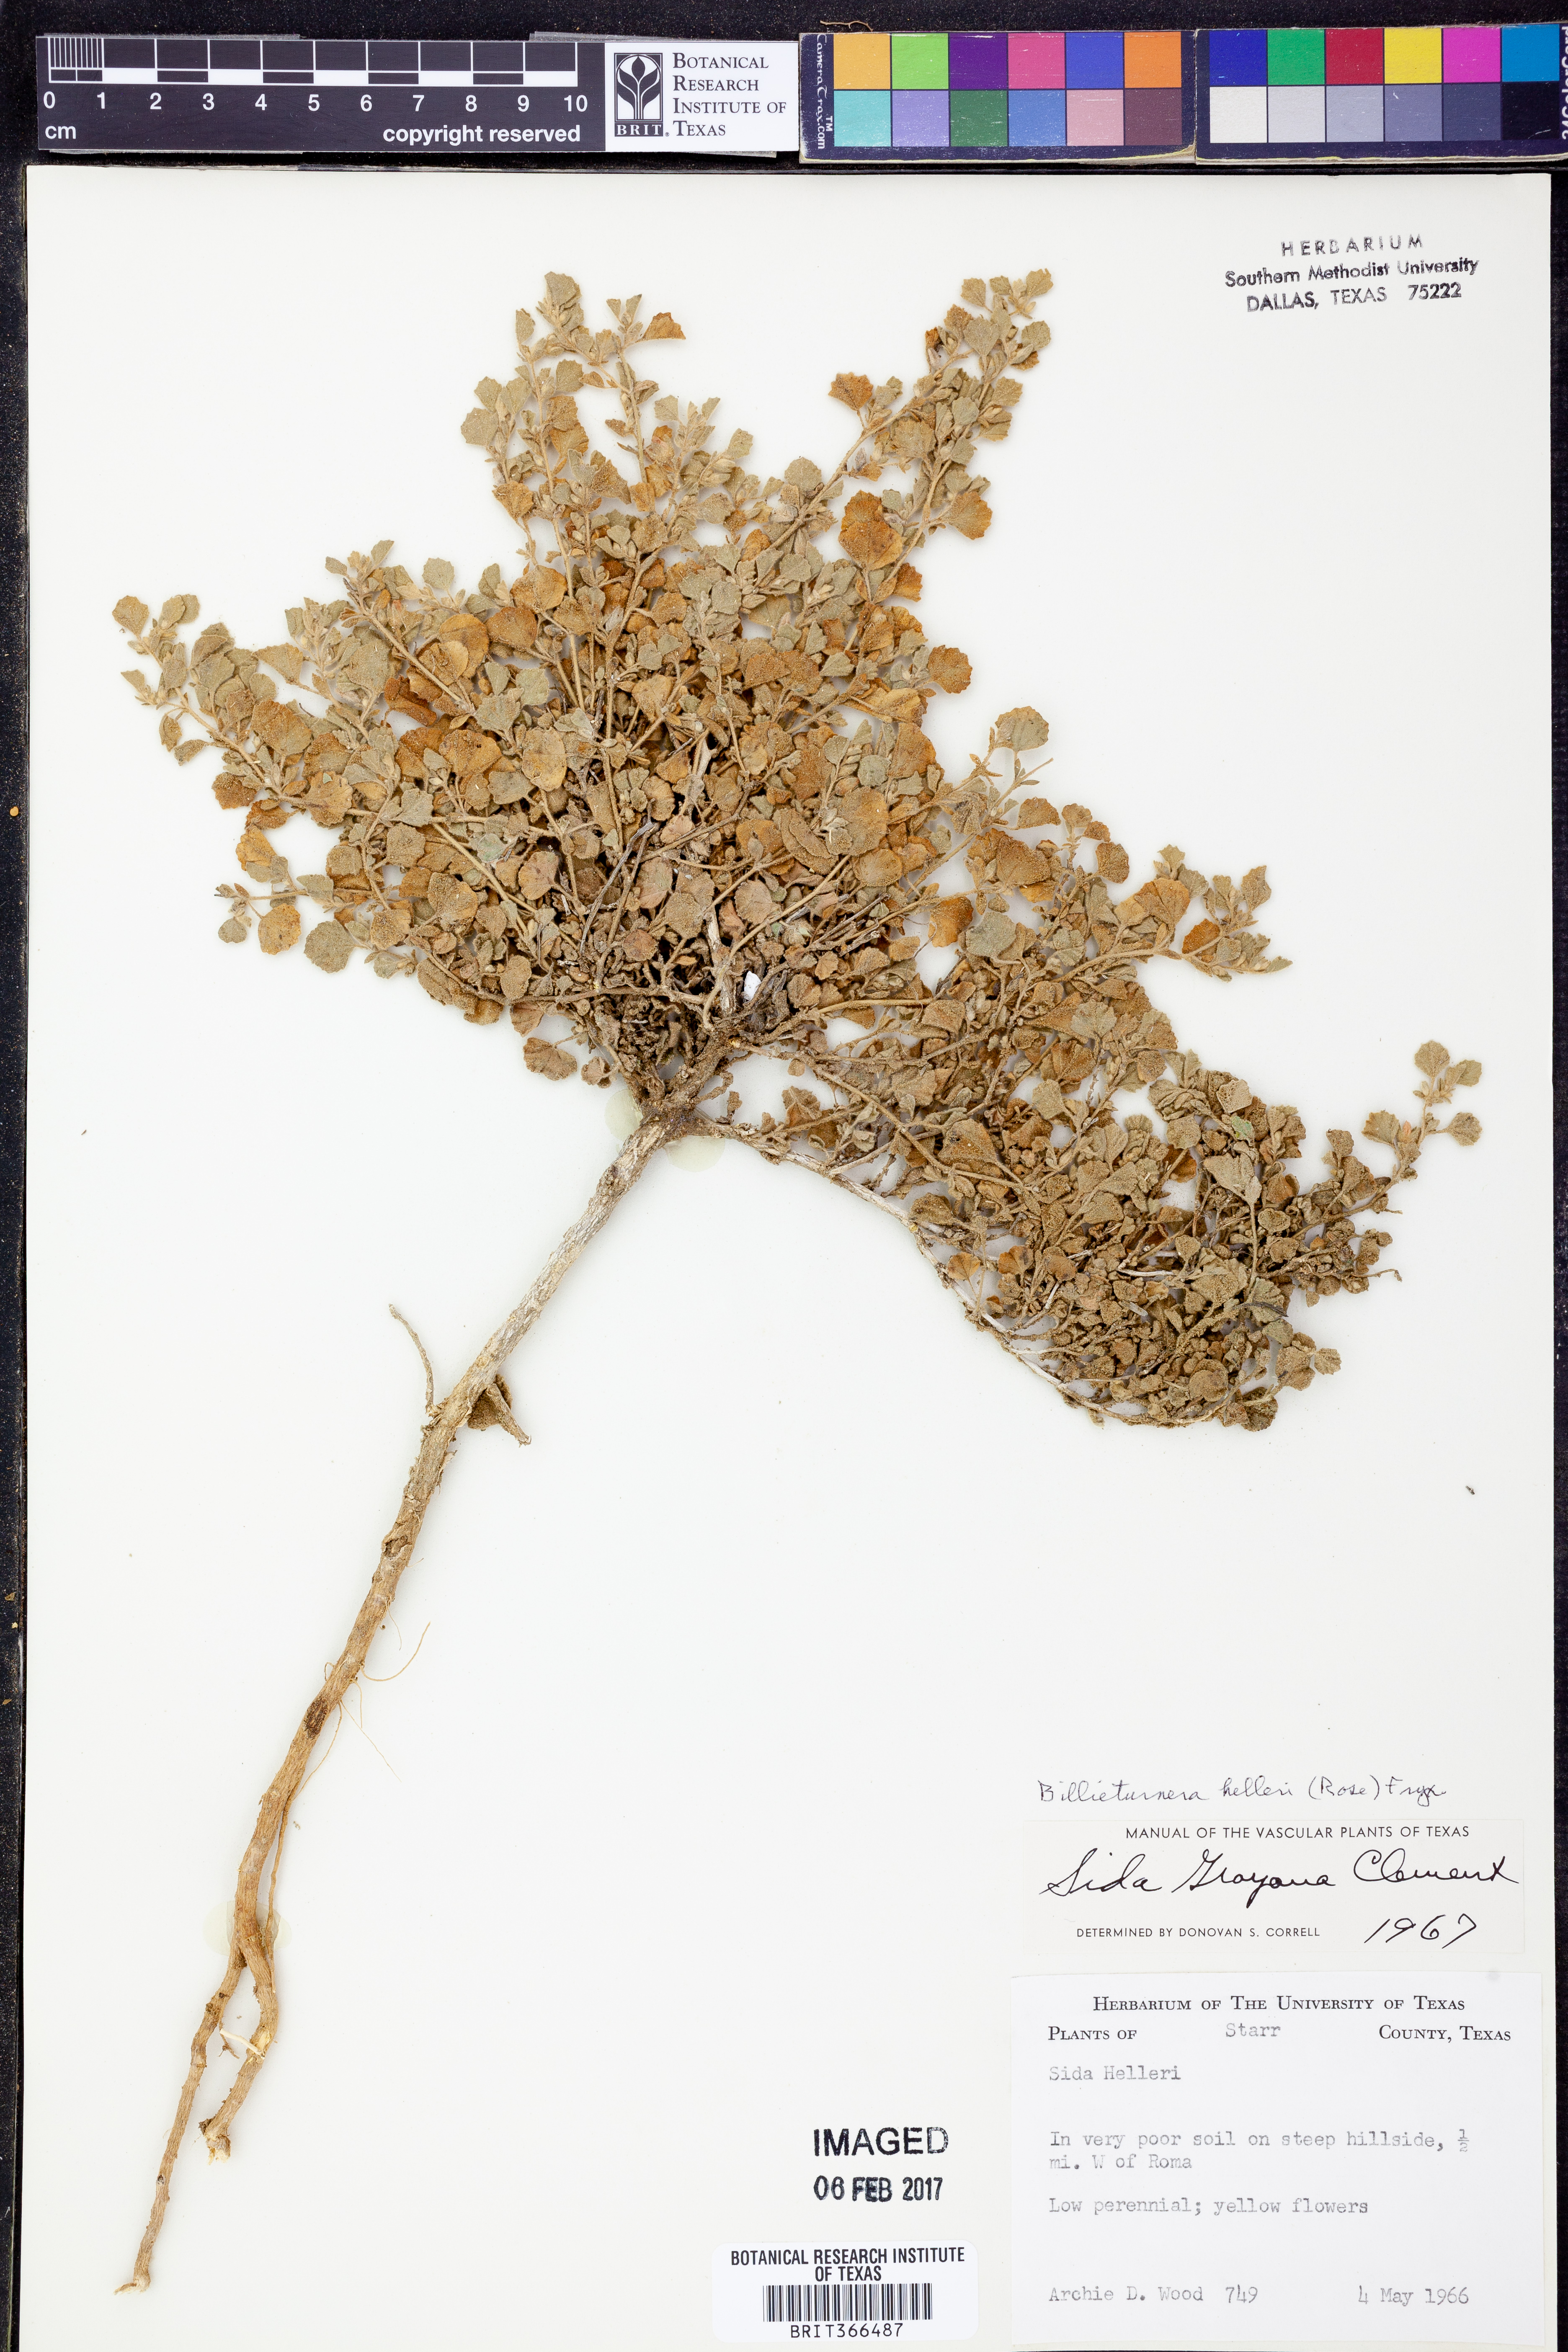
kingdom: Plantae
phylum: Tracheophyta
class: Magnoliopsida
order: Malvales
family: Malvaceae
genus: Billieturnera
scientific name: Billieturnera helleri
